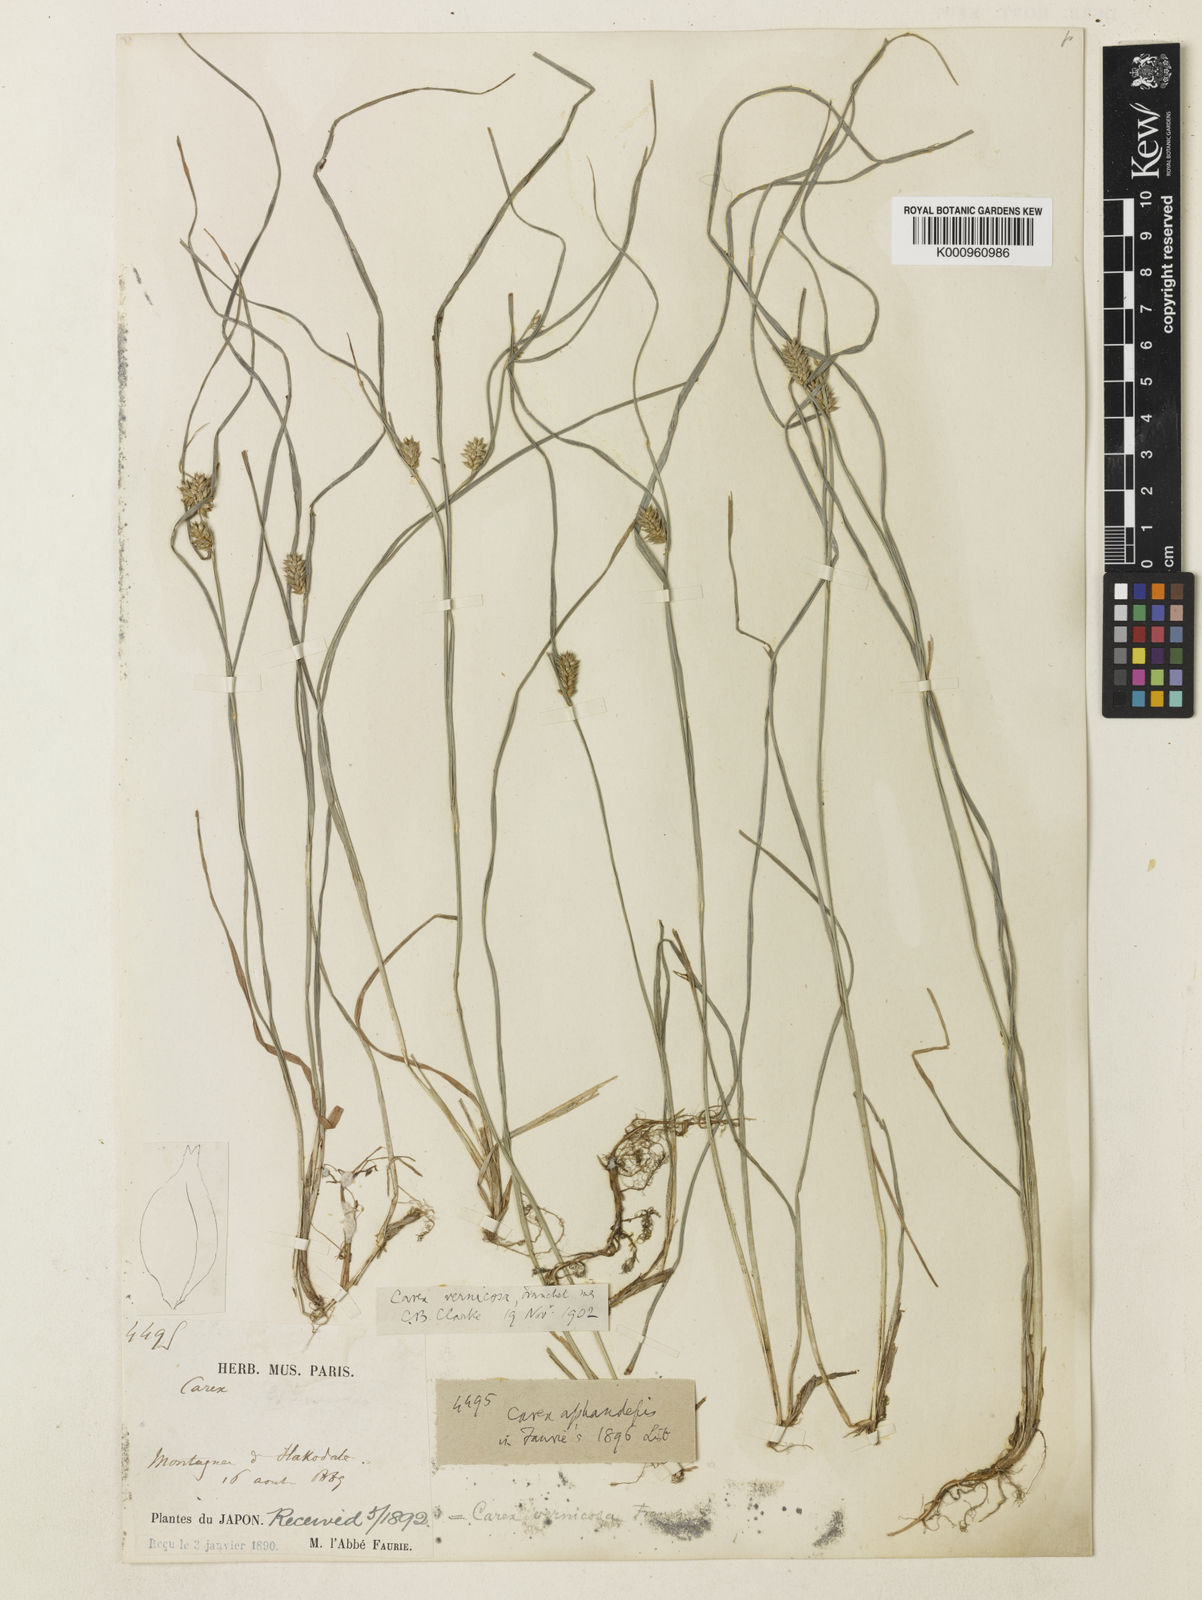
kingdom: Plantae
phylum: Tracheophyta
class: Liliopsida
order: Poales
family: Cyperaceae
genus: Carex
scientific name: Carex aphanolepis
